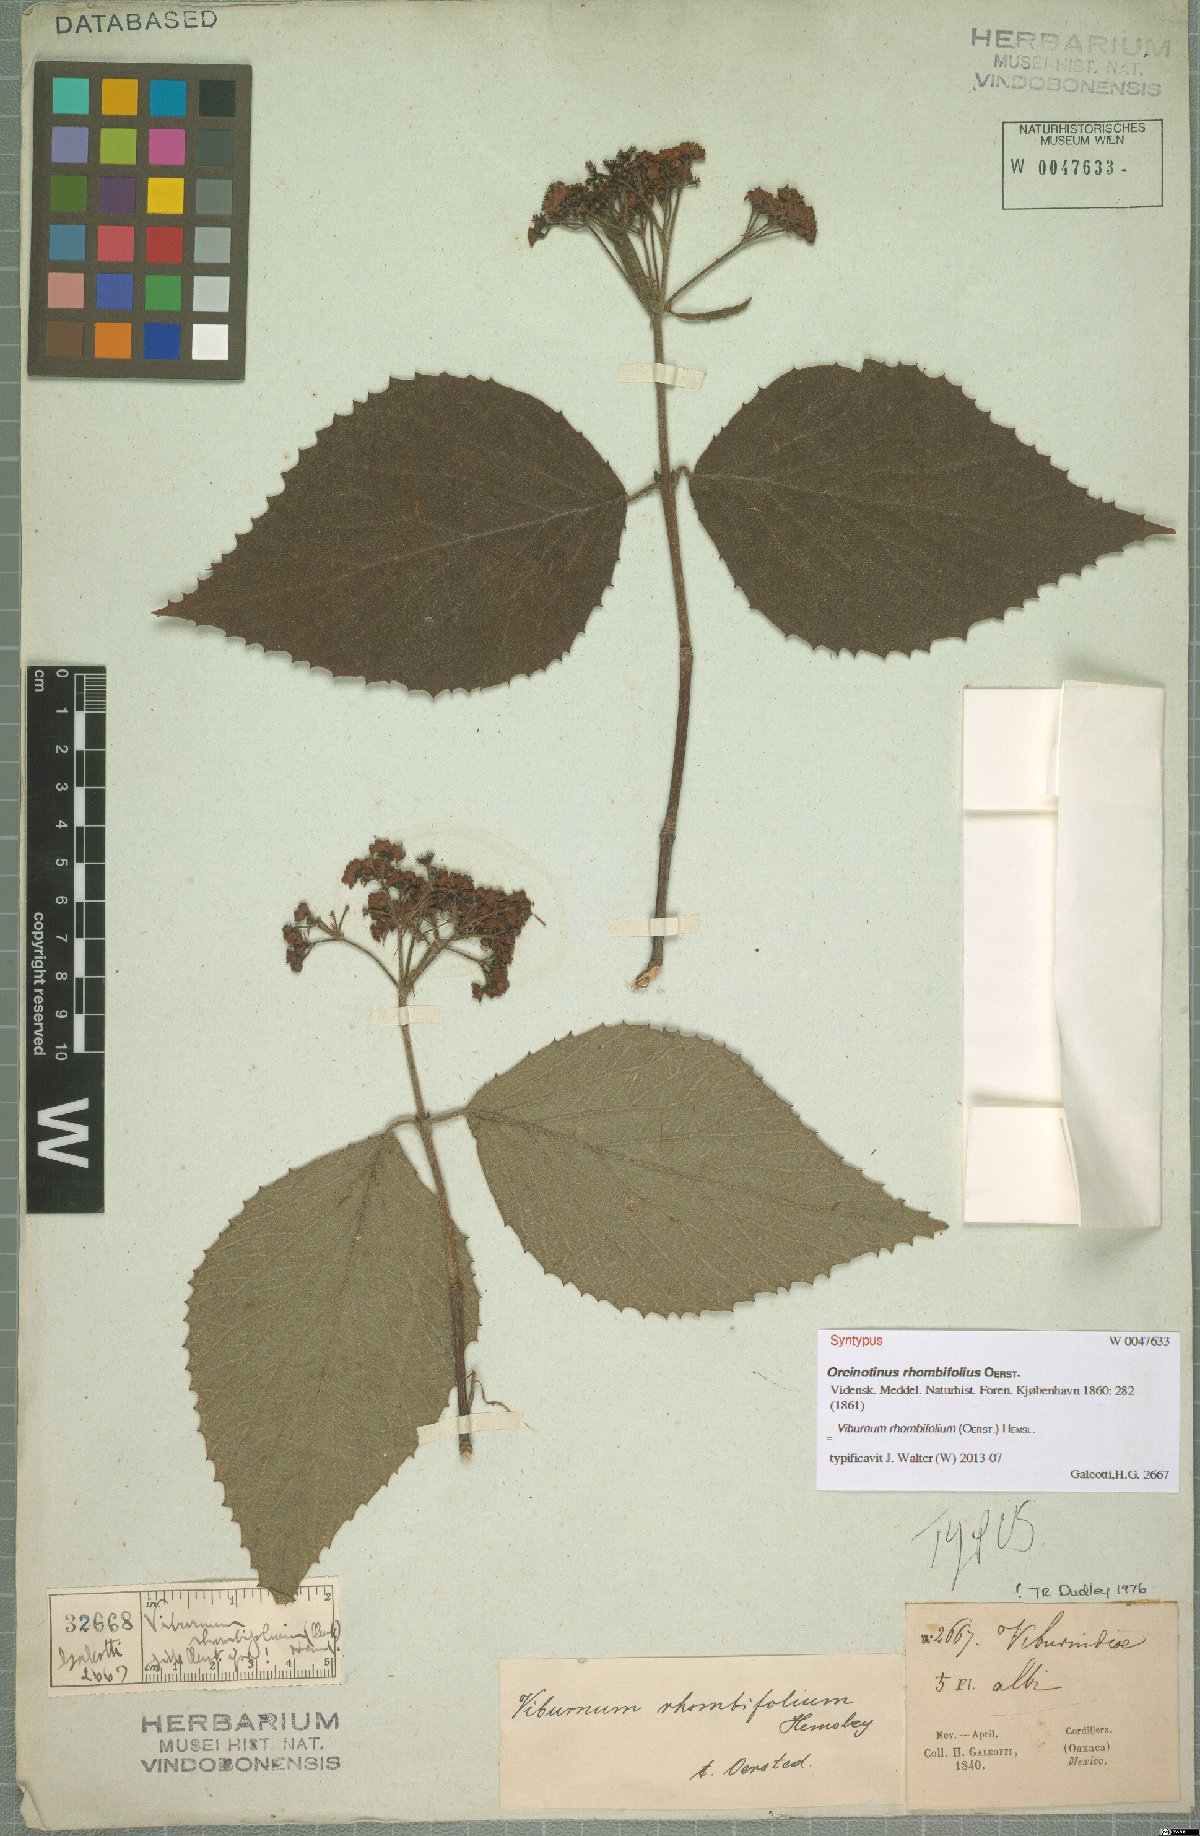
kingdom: Plantae
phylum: Tracheophyta
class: Magnoliopsida
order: Dipsacales
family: Viburnaceae
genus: Viburnum
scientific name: Viburnum tiliifolium
